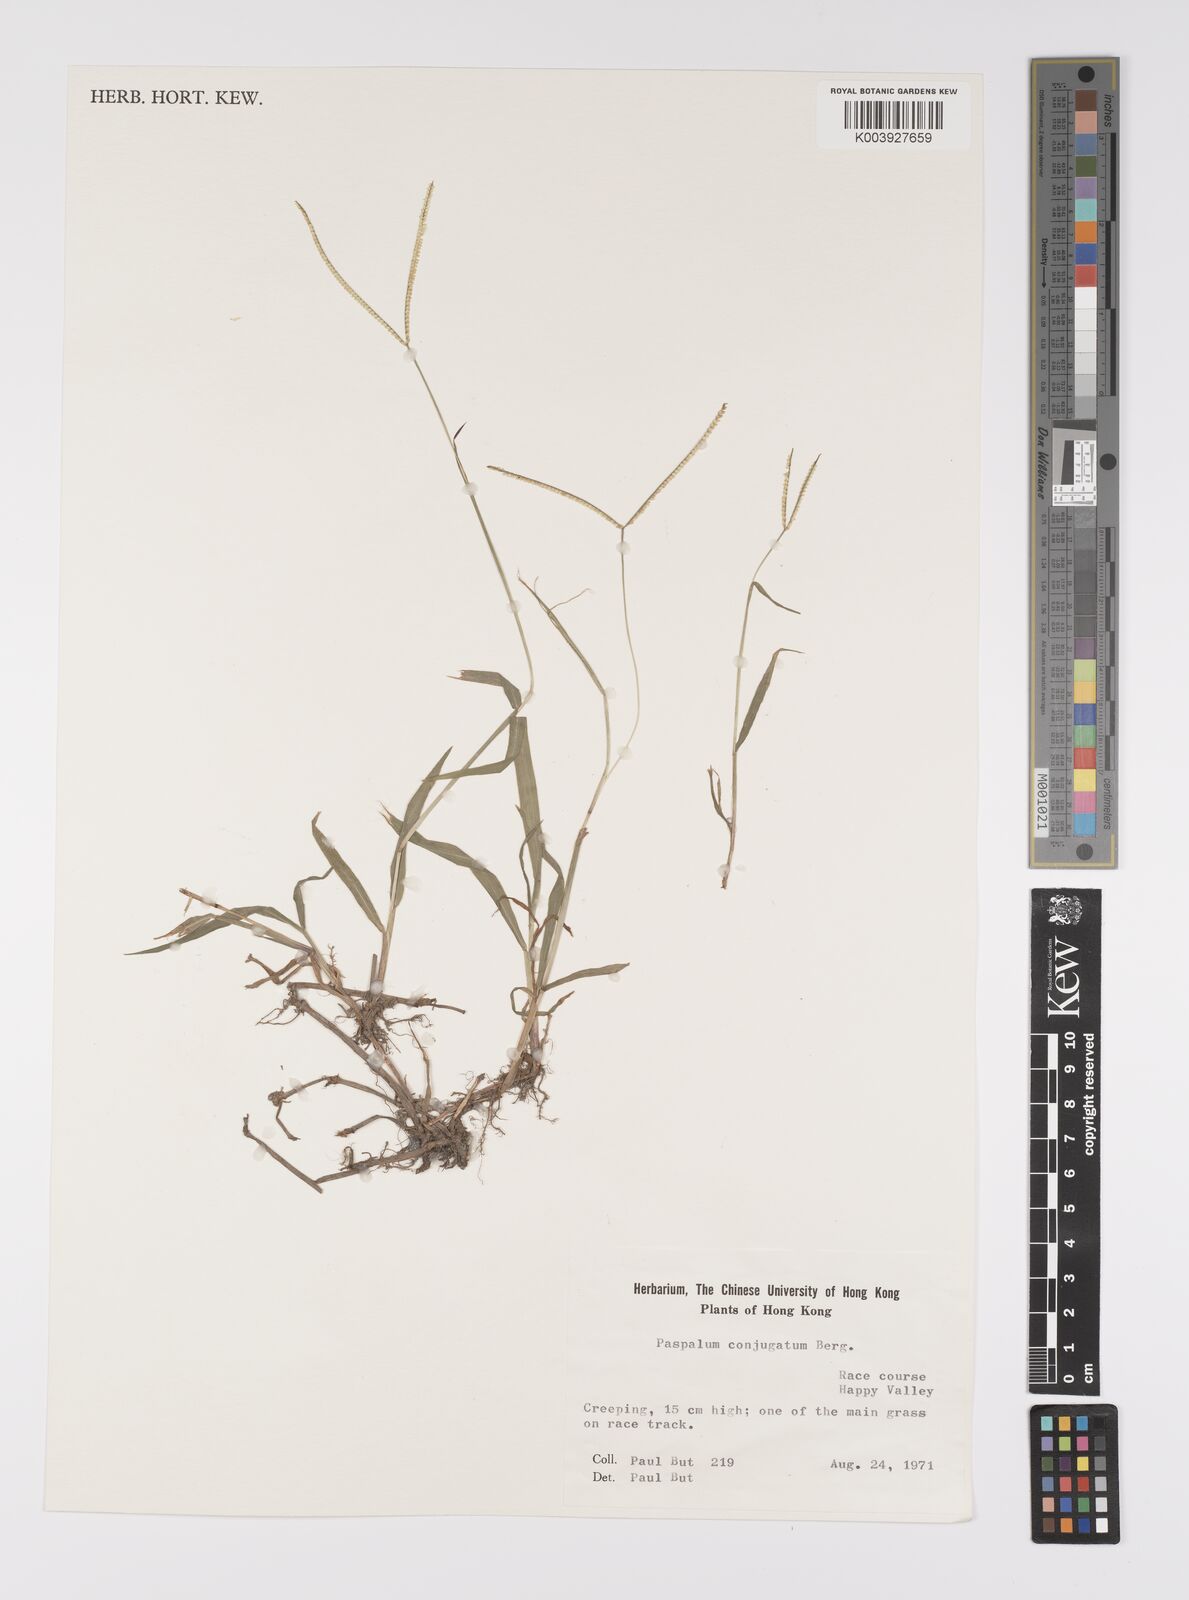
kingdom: Plantae
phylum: Tracheophyta
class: Liliopsida
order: Poales
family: Poaceae
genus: Paspalum
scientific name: Paspalum conjugatum
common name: Hilograss
